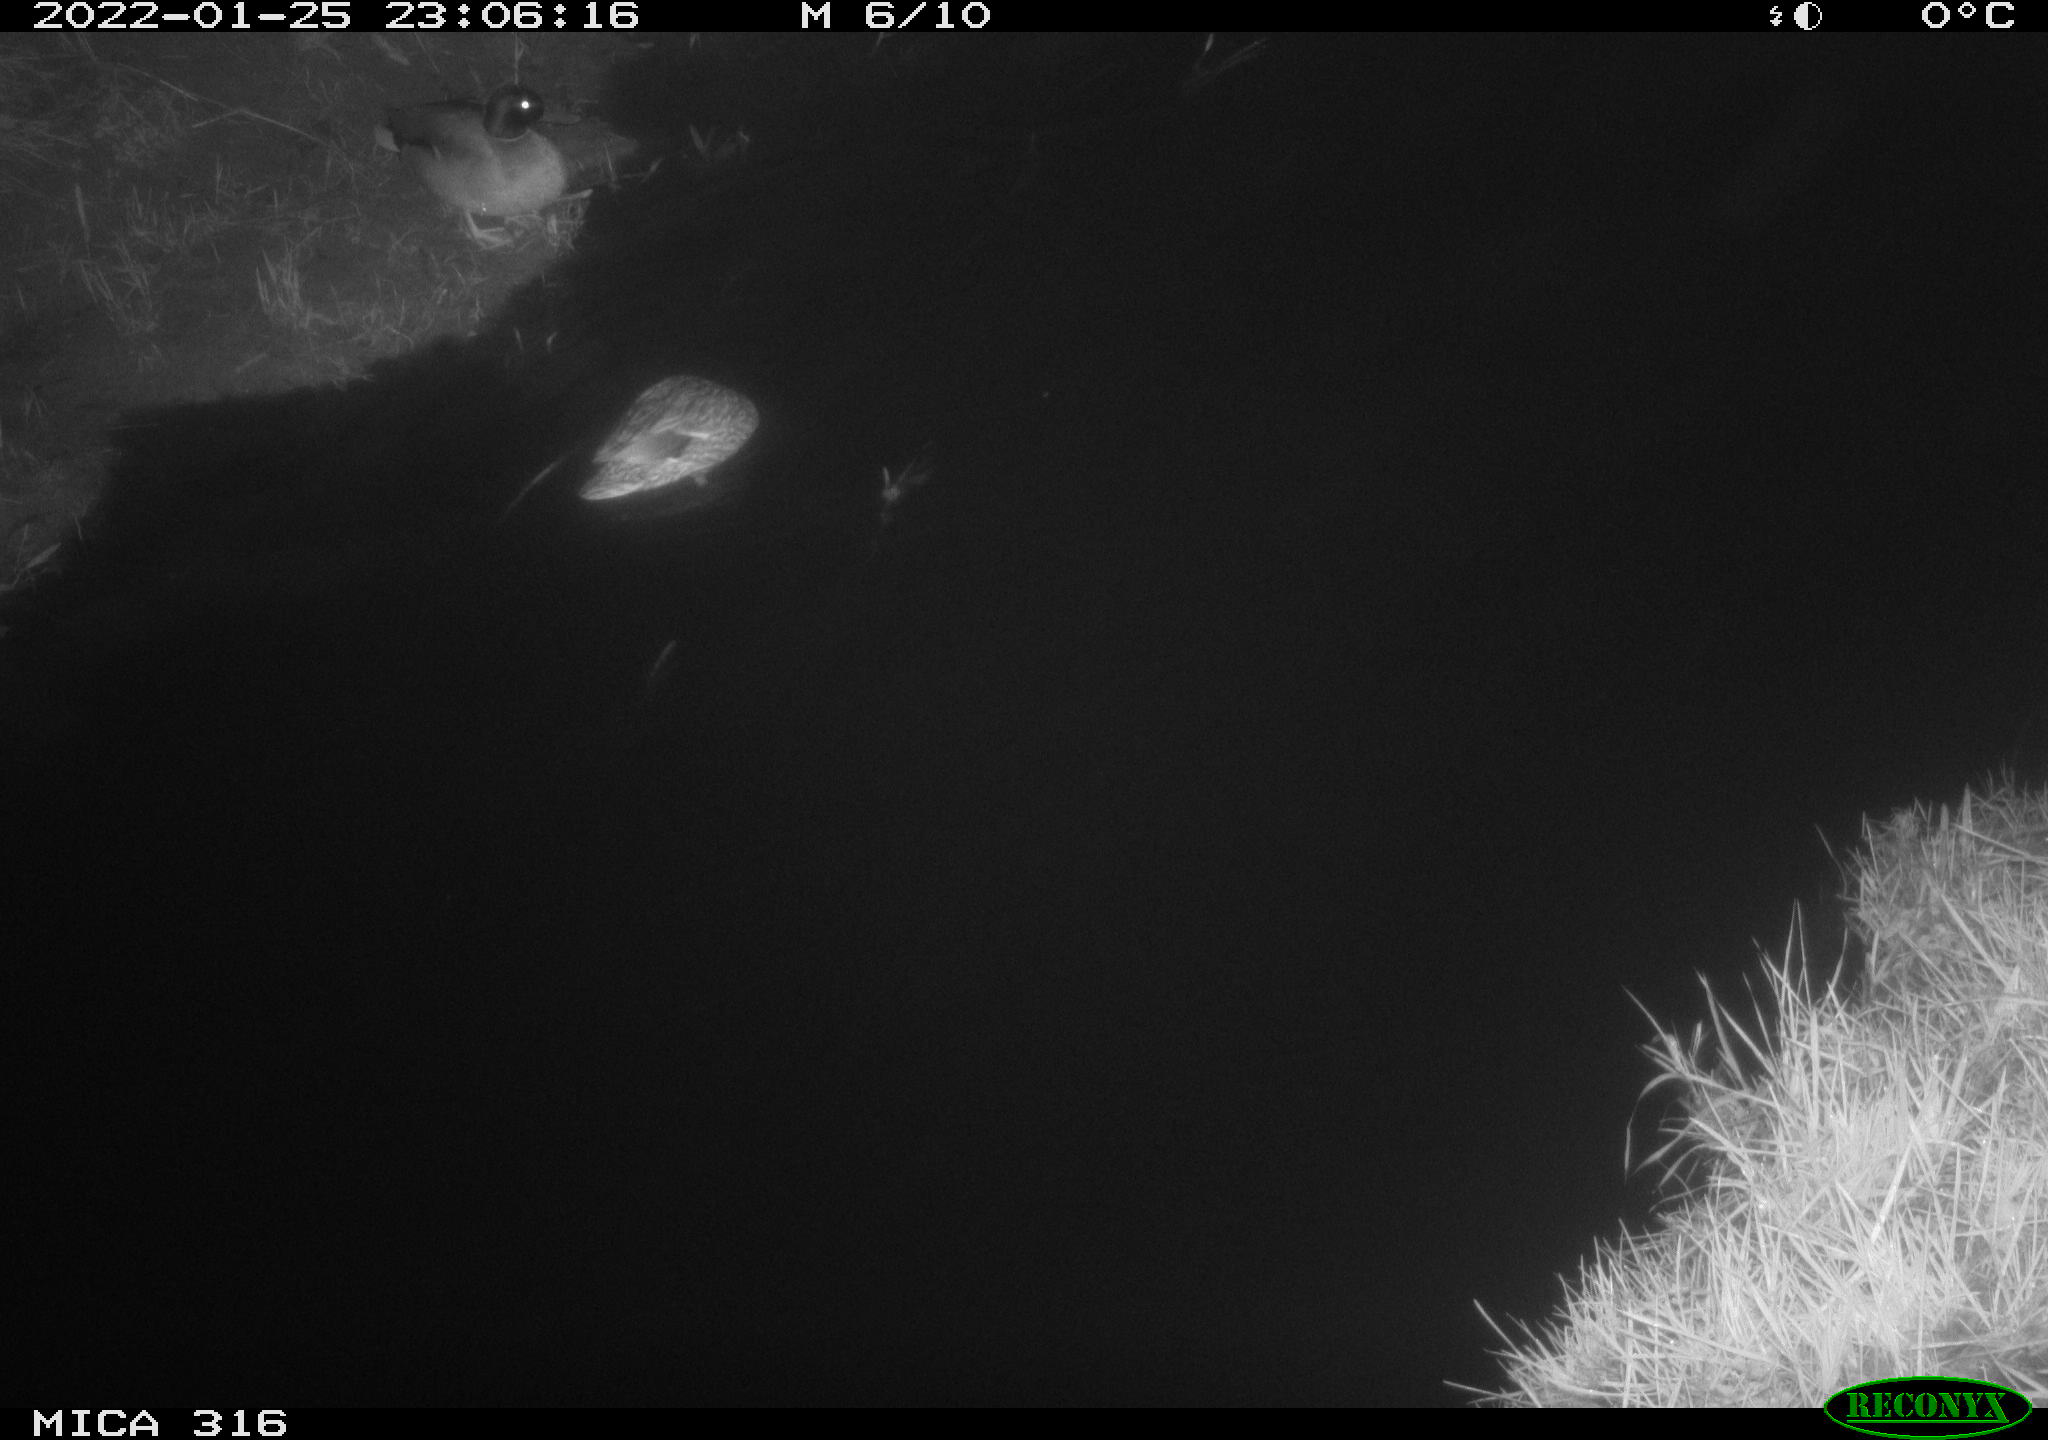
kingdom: Animalia
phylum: Chordata
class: Aves
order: Anseriformes
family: Anatidae
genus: Anas
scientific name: Anas platyrhynchos
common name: Mallard
